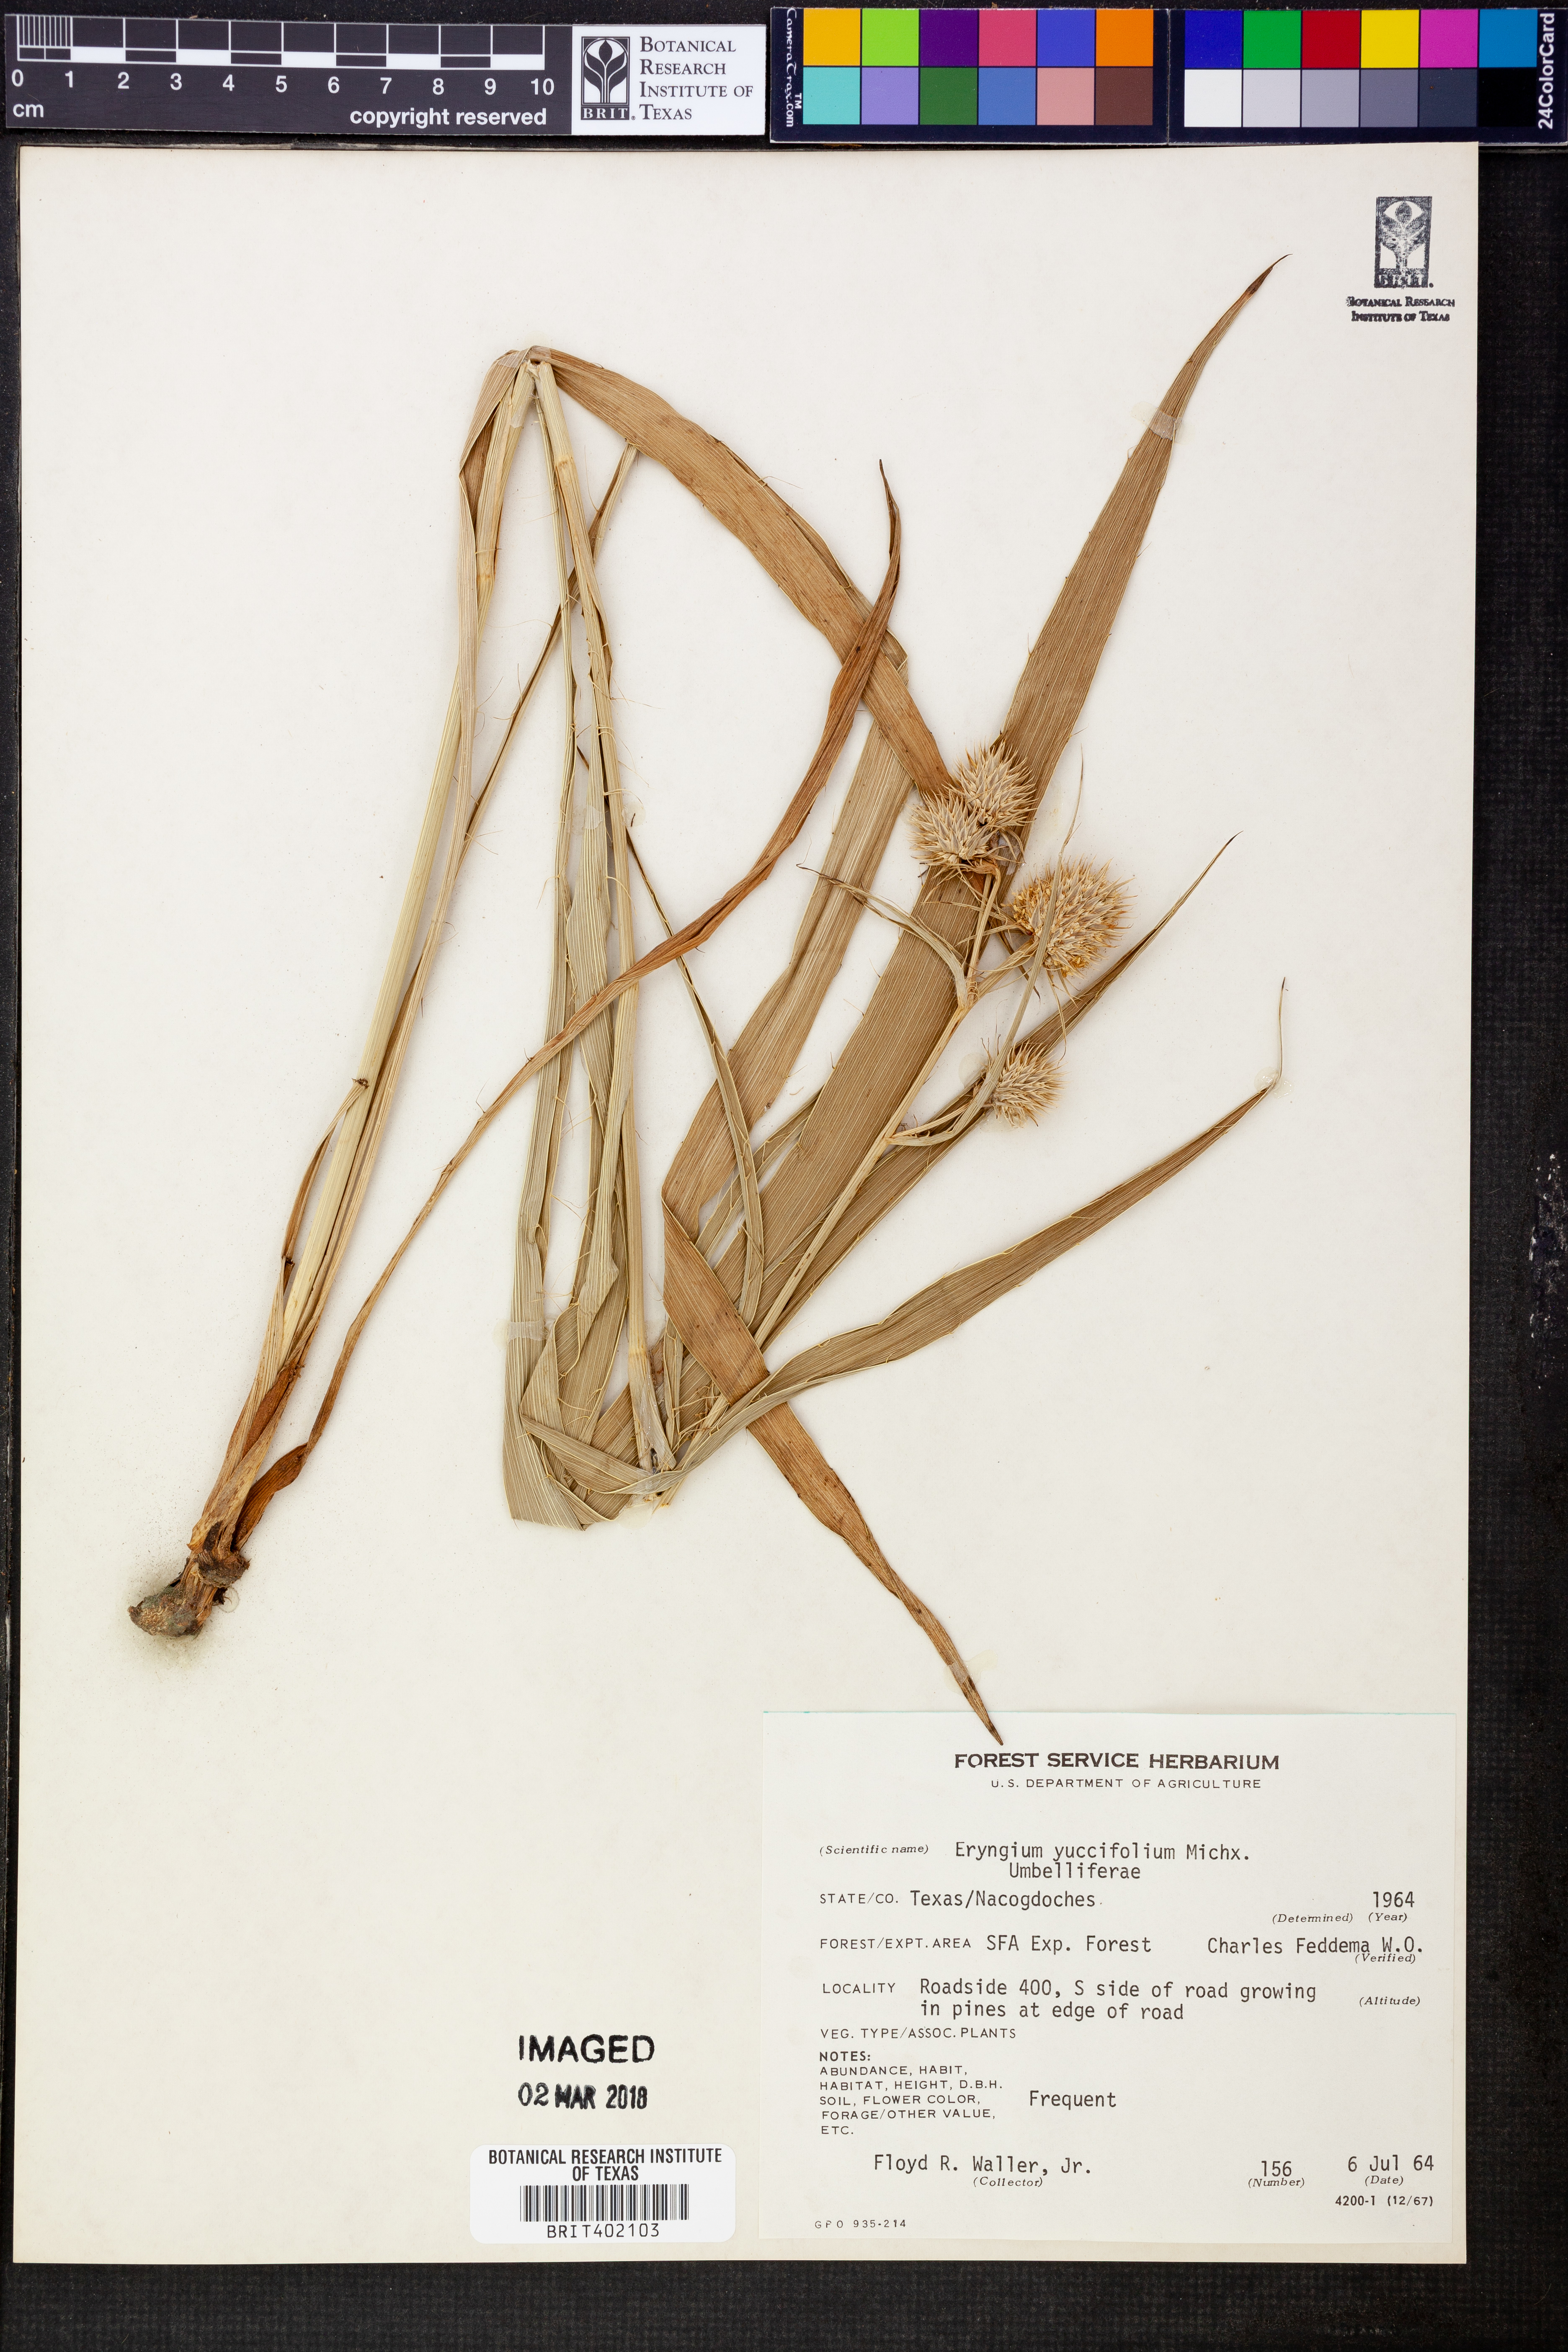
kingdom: Plantae
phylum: Tracheophyta
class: Magnoliopsida
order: Apiales
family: Apiaceae
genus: Eryngium
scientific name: Eryngium yuccifolium
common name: Button eryngo
